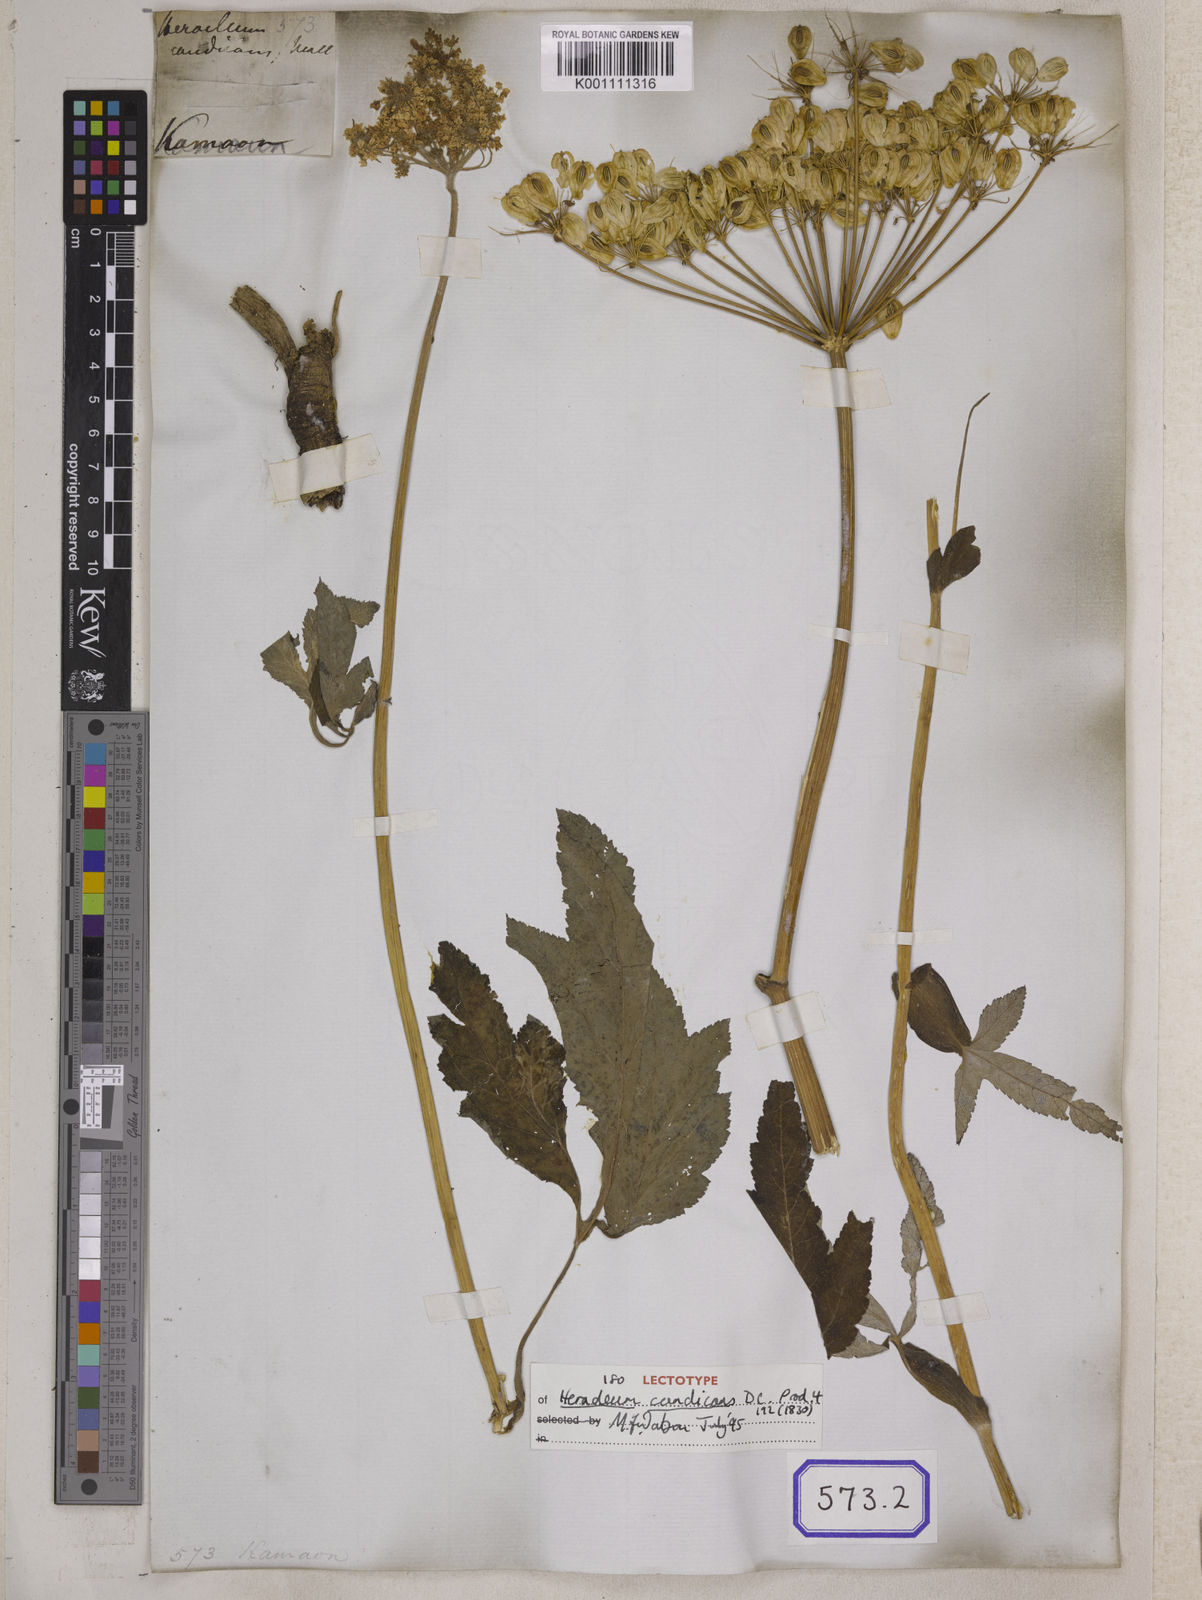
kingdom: Plantae
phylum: Tracheophyta
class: Magnoliopsida
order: Apiales
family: Apiaceae
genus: Heracleum
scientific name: Heracleum
